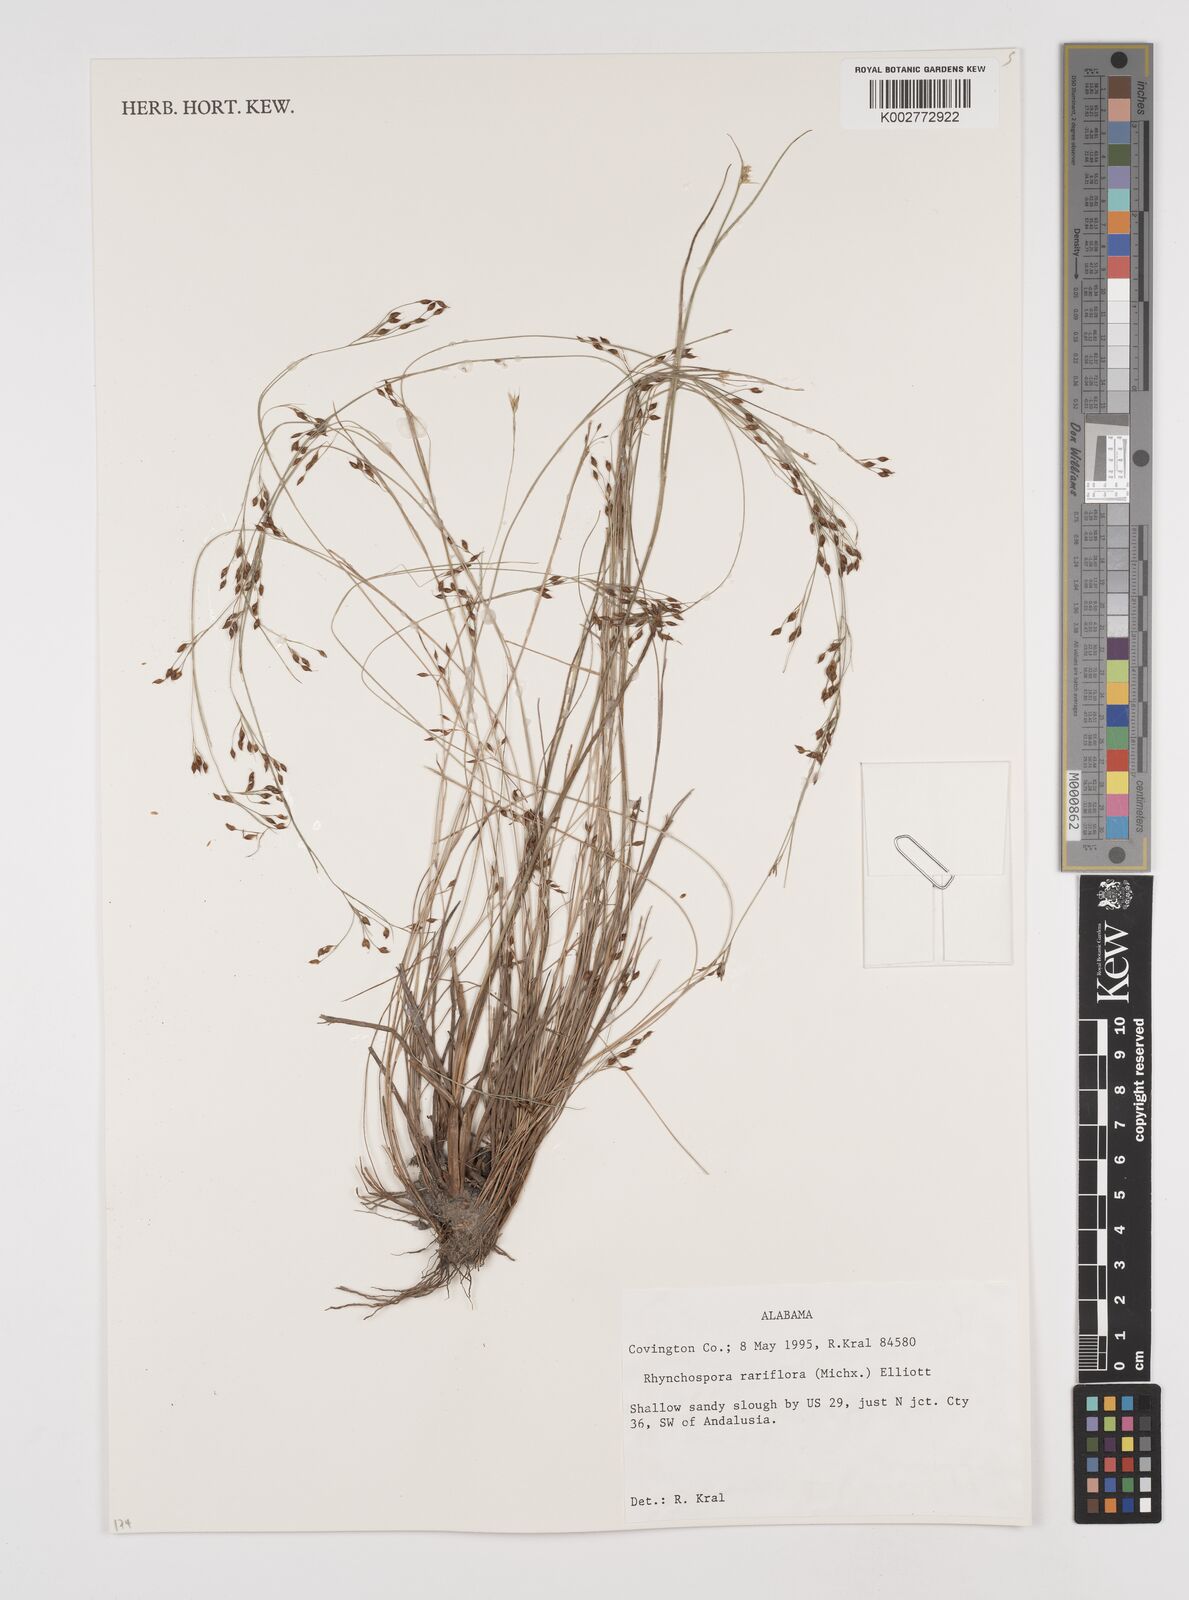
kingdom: Plantae
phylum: Tracheophyta
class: Liliopsida
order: Poales
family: Cyperaceae
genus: Rhynchospora
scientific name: Rhynchospora rariflora
